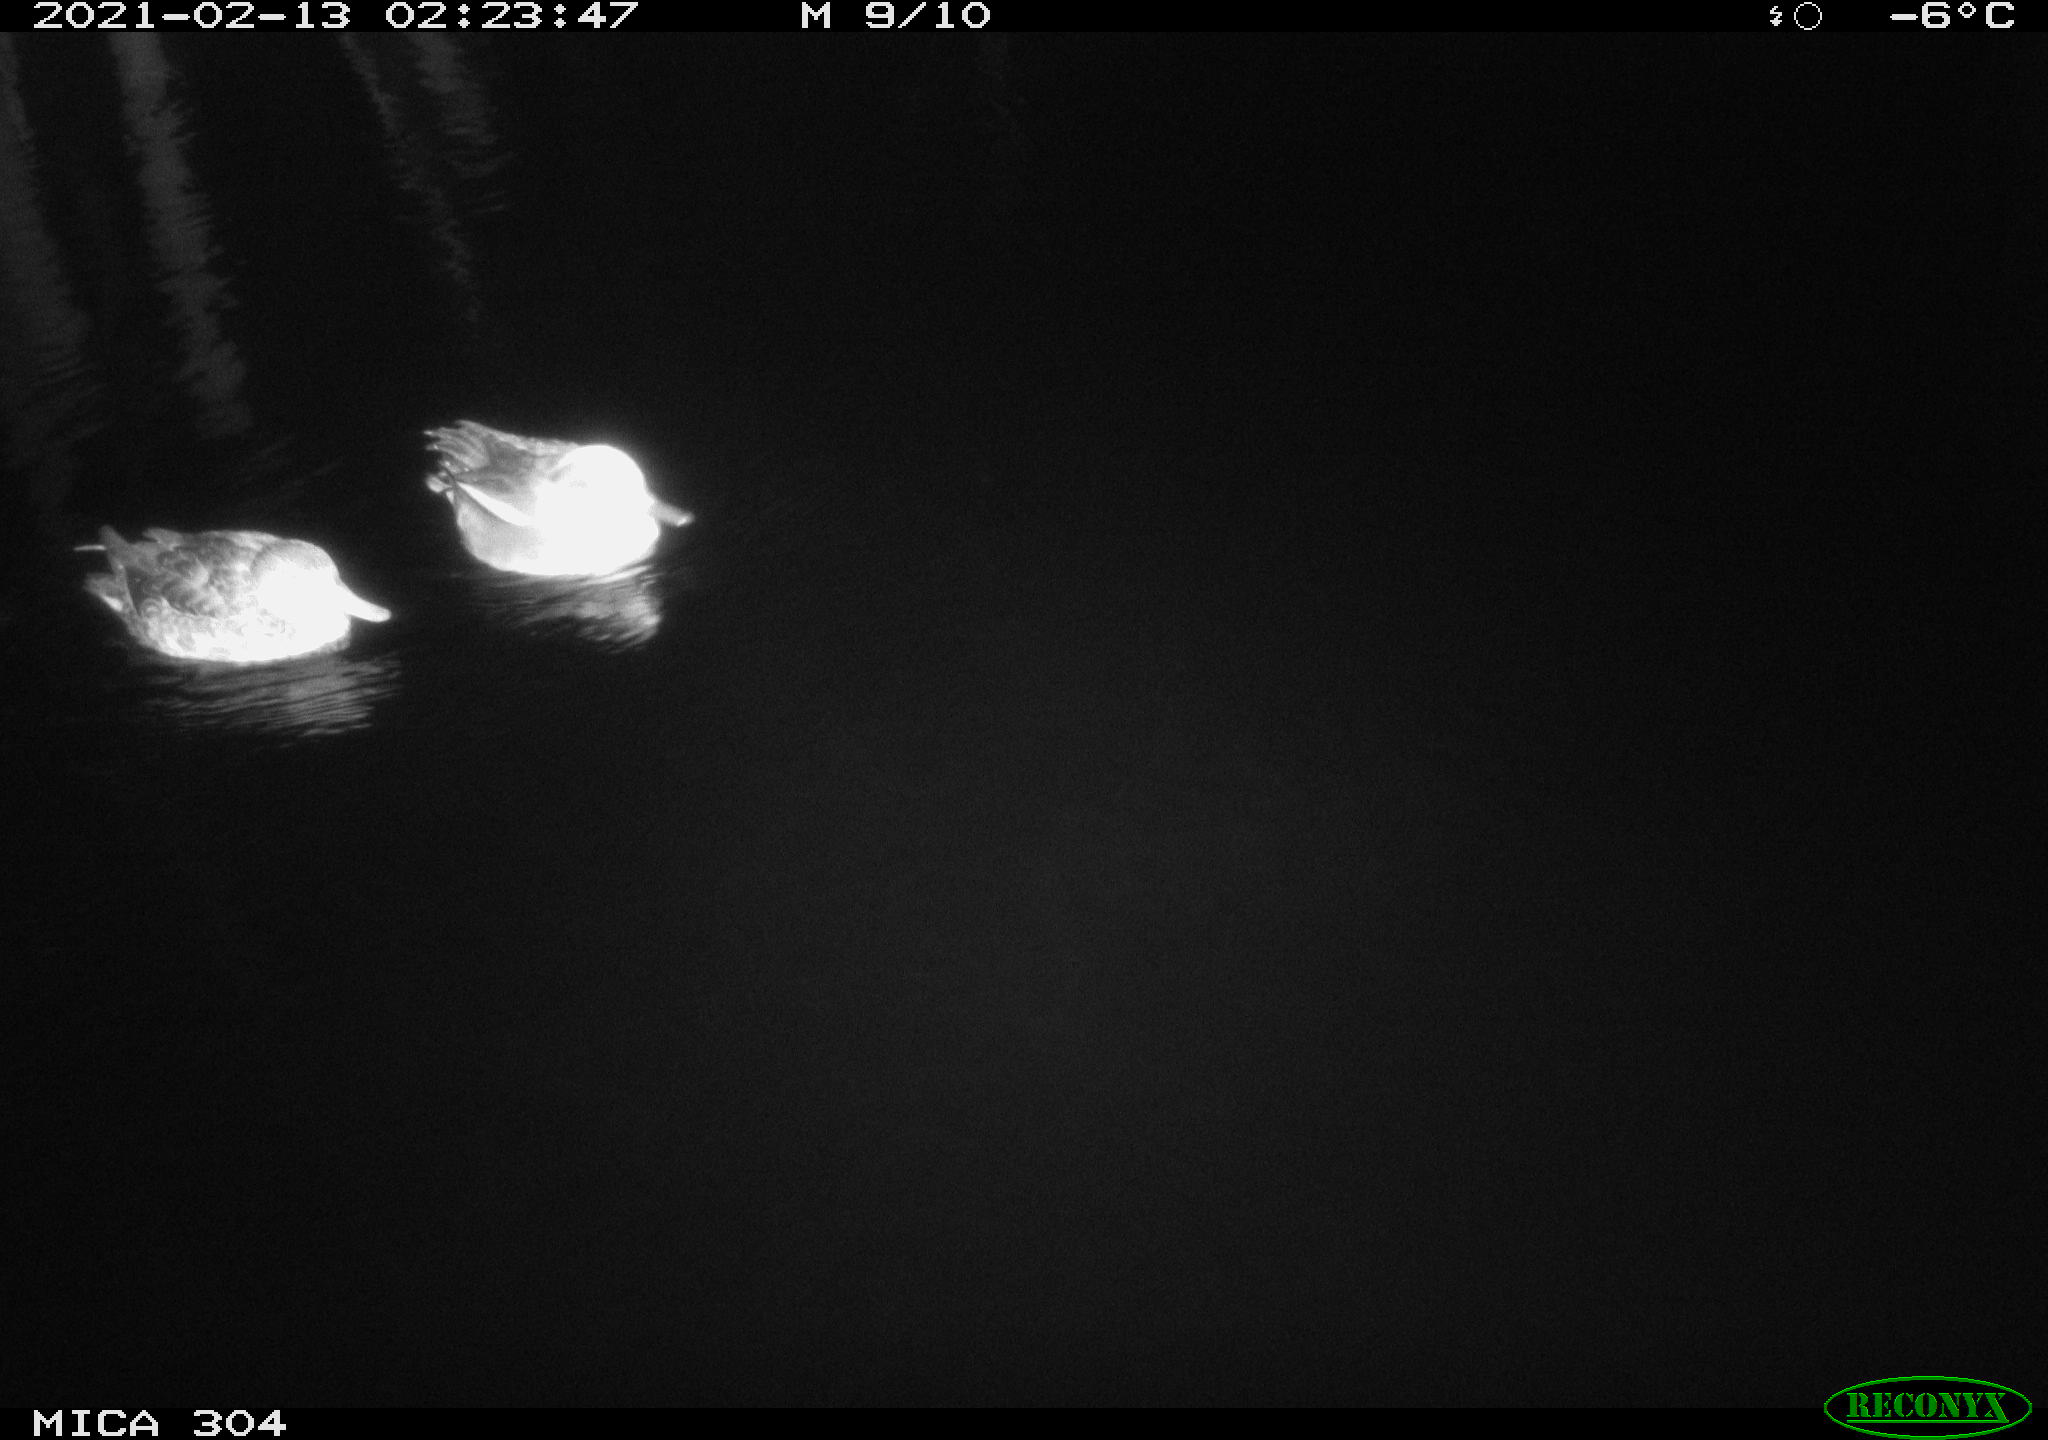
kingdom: Animalia
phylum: Chordata
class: Aves
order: Anseriformes
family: Anatidae
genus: Anas
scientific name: Anas platyrhynchos
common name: Mallard
